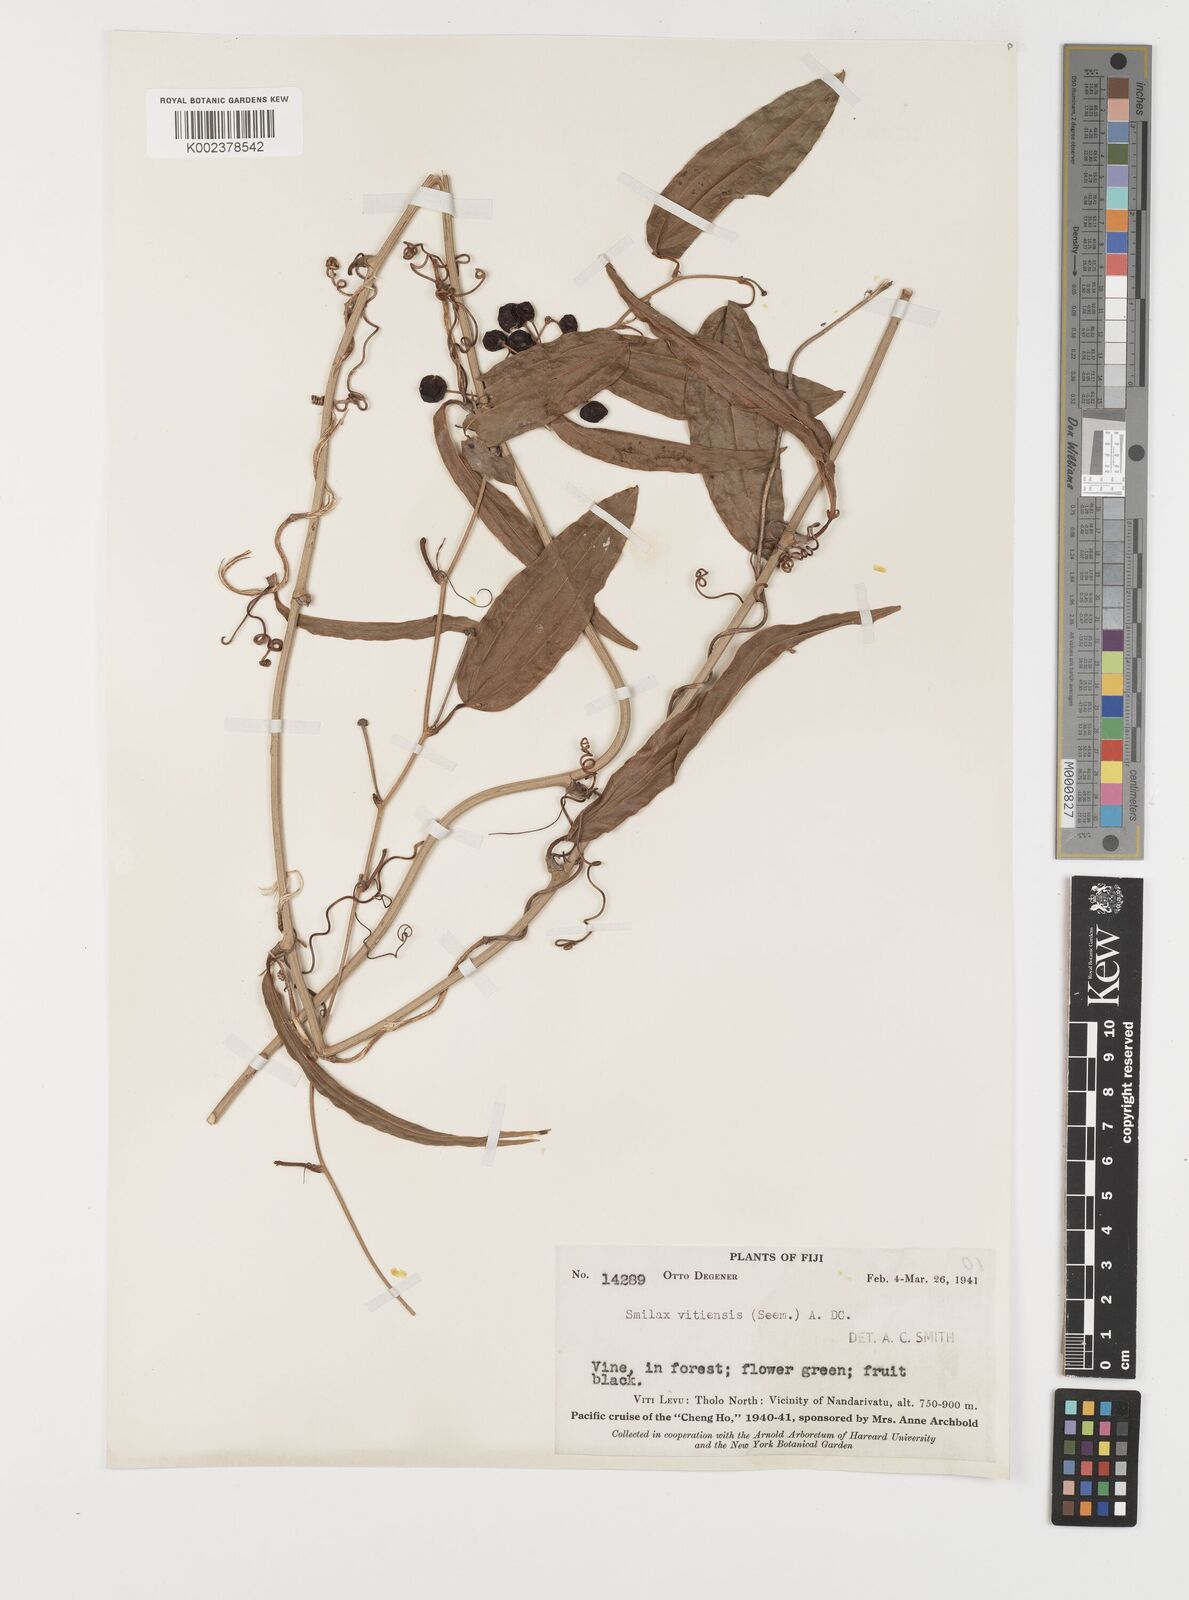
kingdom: Plantae
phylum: Tracheophyta
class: Liliopsida
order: Liliales
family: Smilacaceae
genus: Smilax
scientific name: Smilax vitiensis
